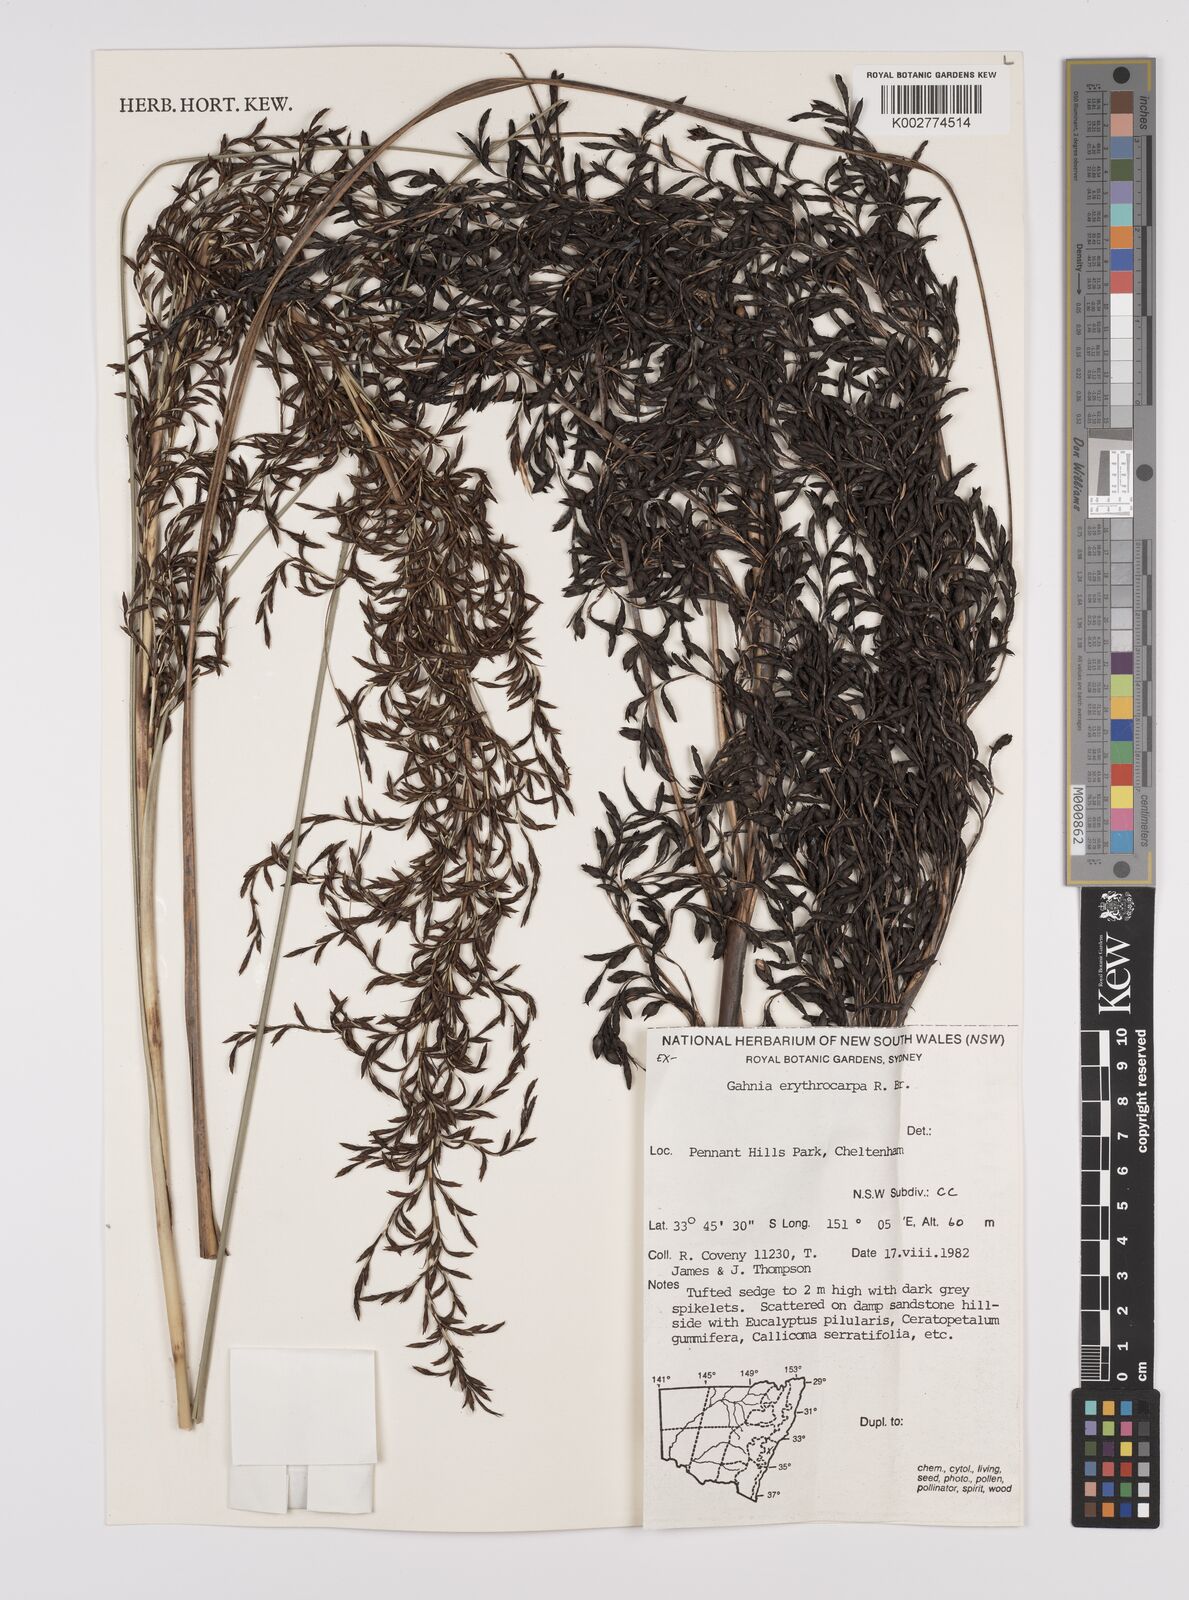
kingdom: Plantae
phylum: Tracheophyta
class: Liliopsida
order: Poales
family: Cyperaceae
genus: Gahnia
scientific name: Gahnia erythrocarpa
